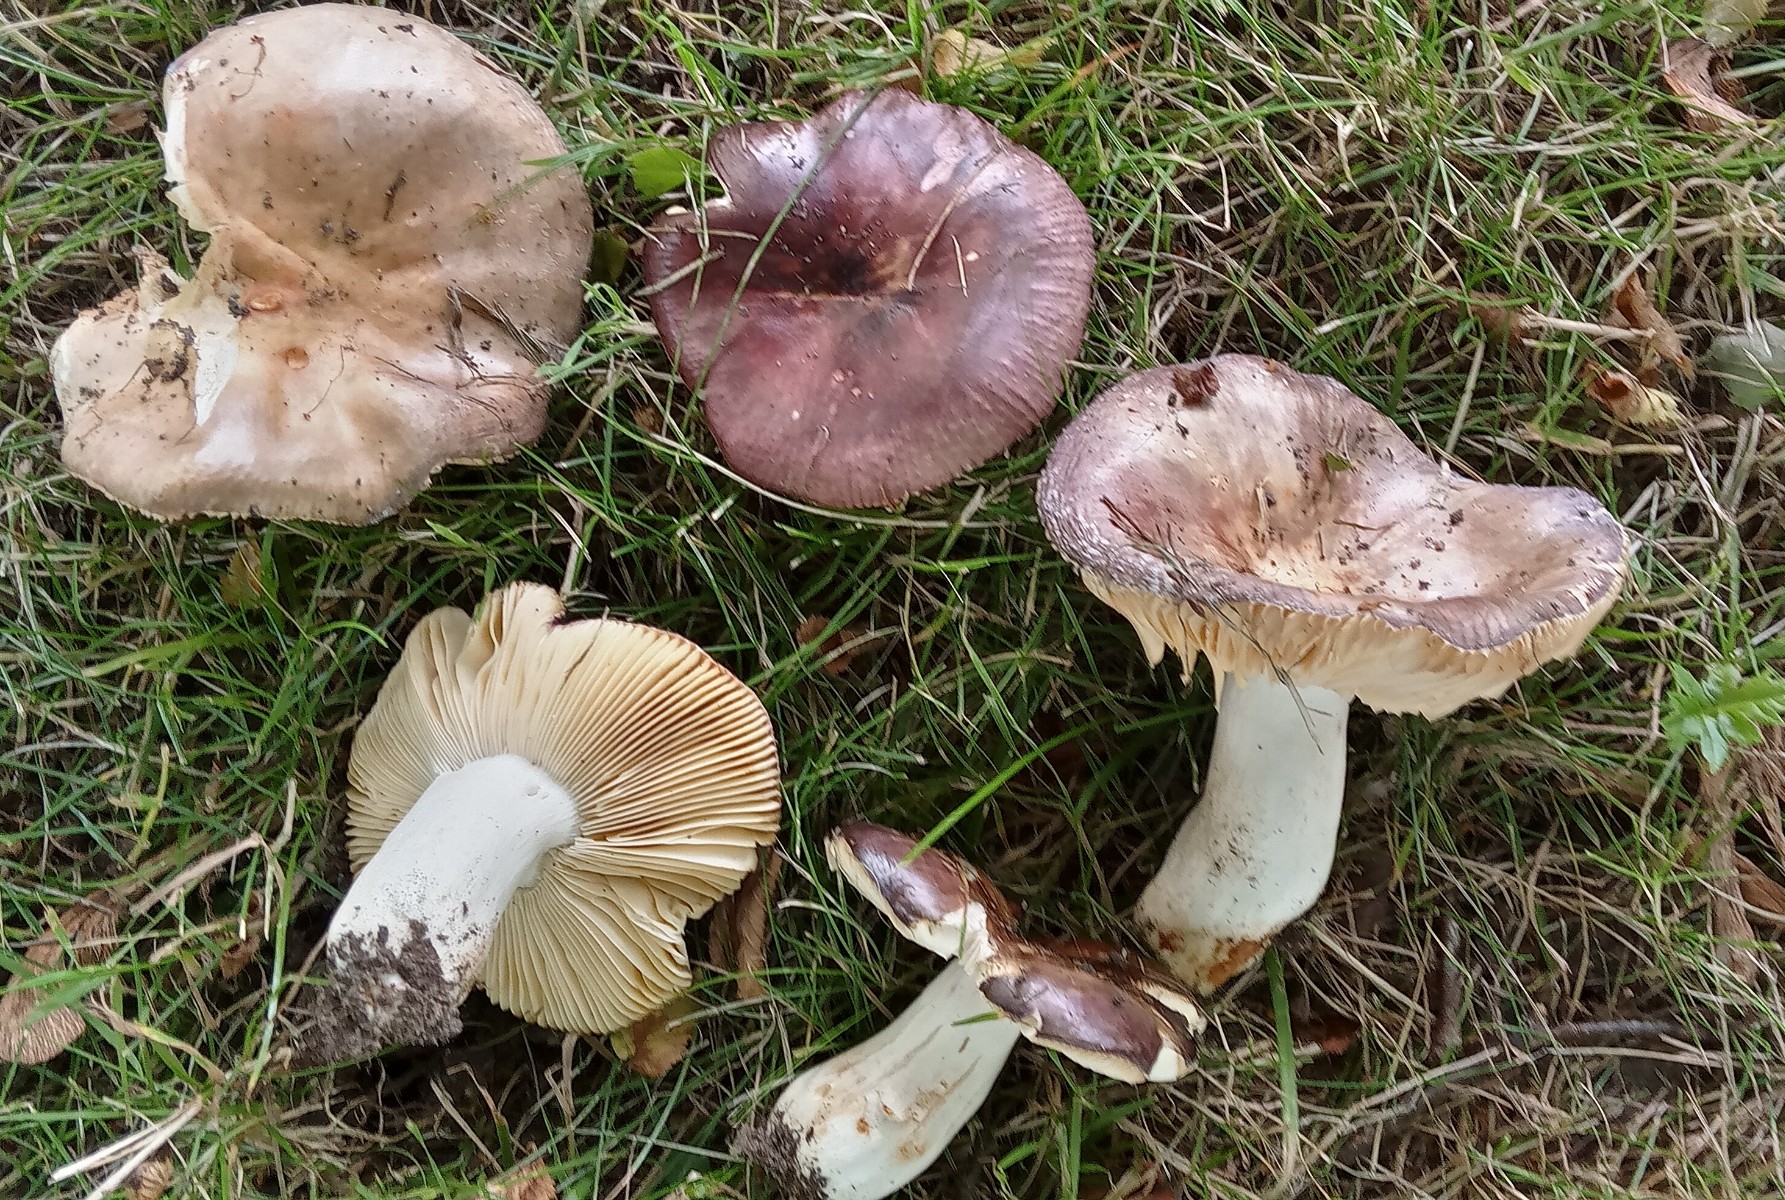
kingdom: Fungi
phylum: Basidiomycota
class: Agaricomycetes
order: Russulales
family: Russulaceae
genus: Russula
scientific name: Russula carpini
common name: avnbøg-skørhat
